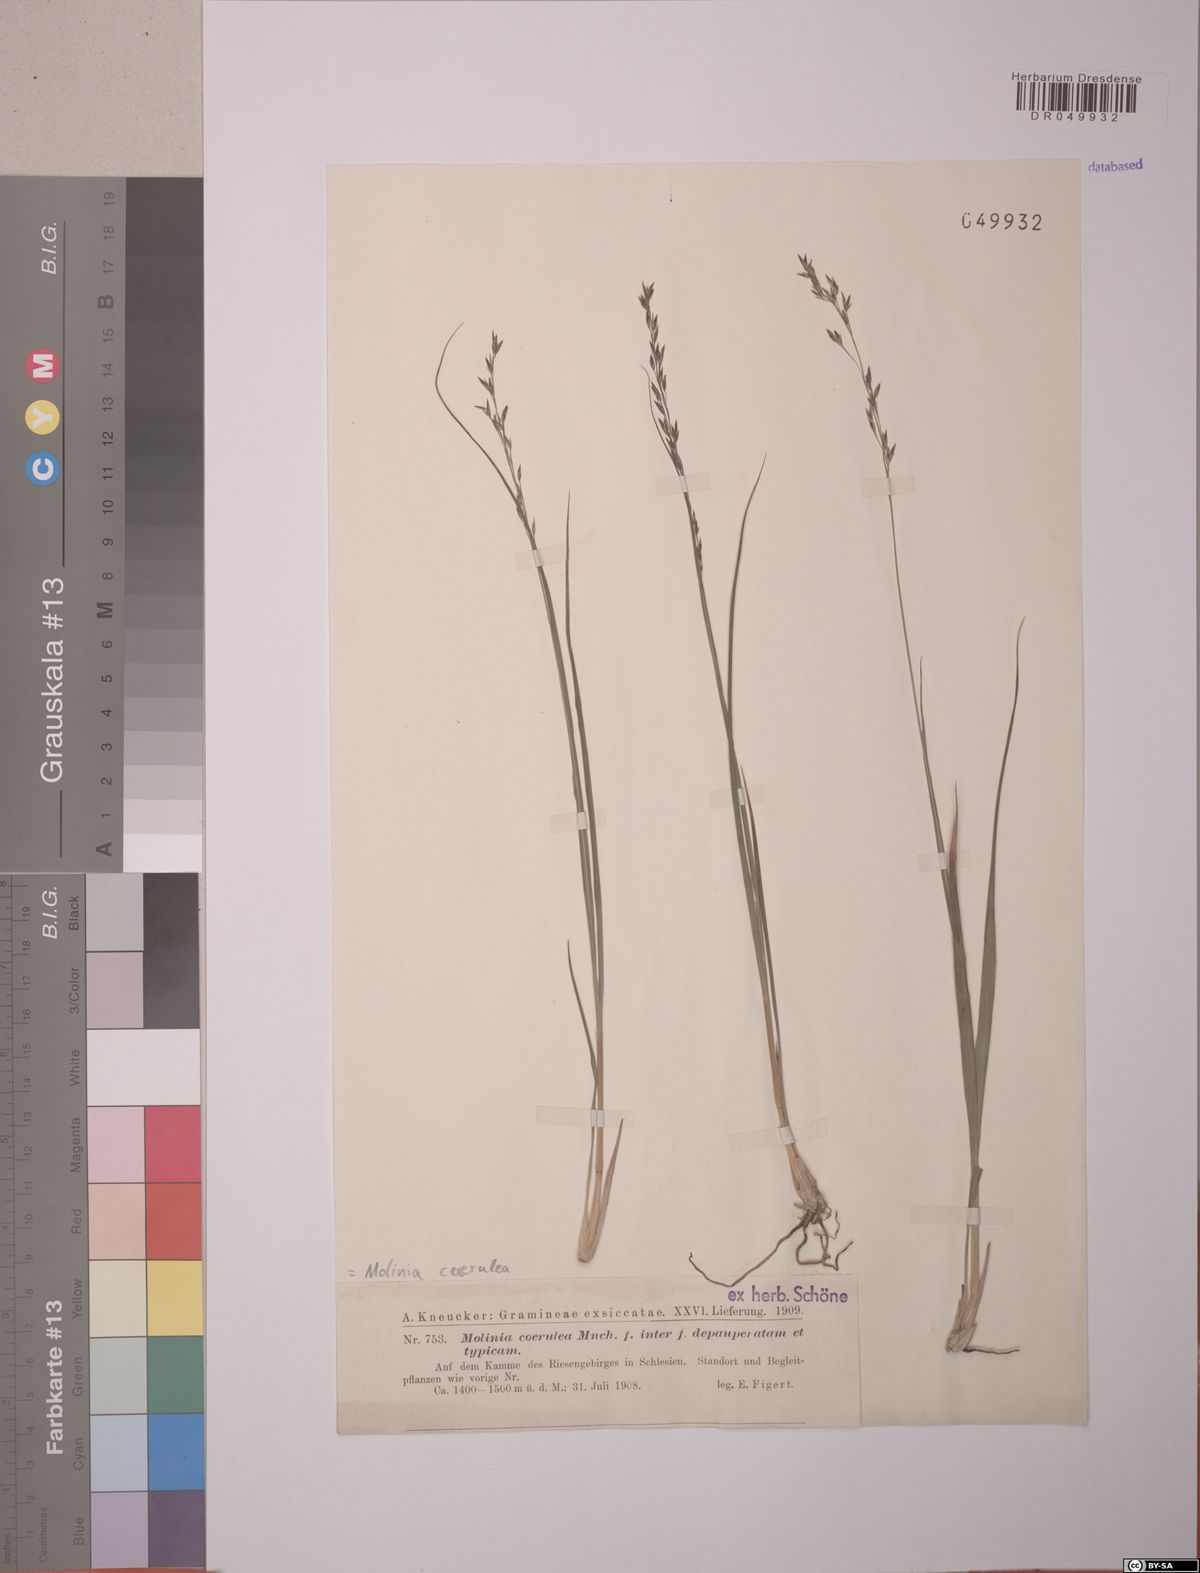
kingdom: Plantae
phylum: Tracheophyta
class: Liliopsida
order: Poales
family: Poaceae
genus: Molinia
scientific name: Molinia caerulea
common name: Purple moor-grass
